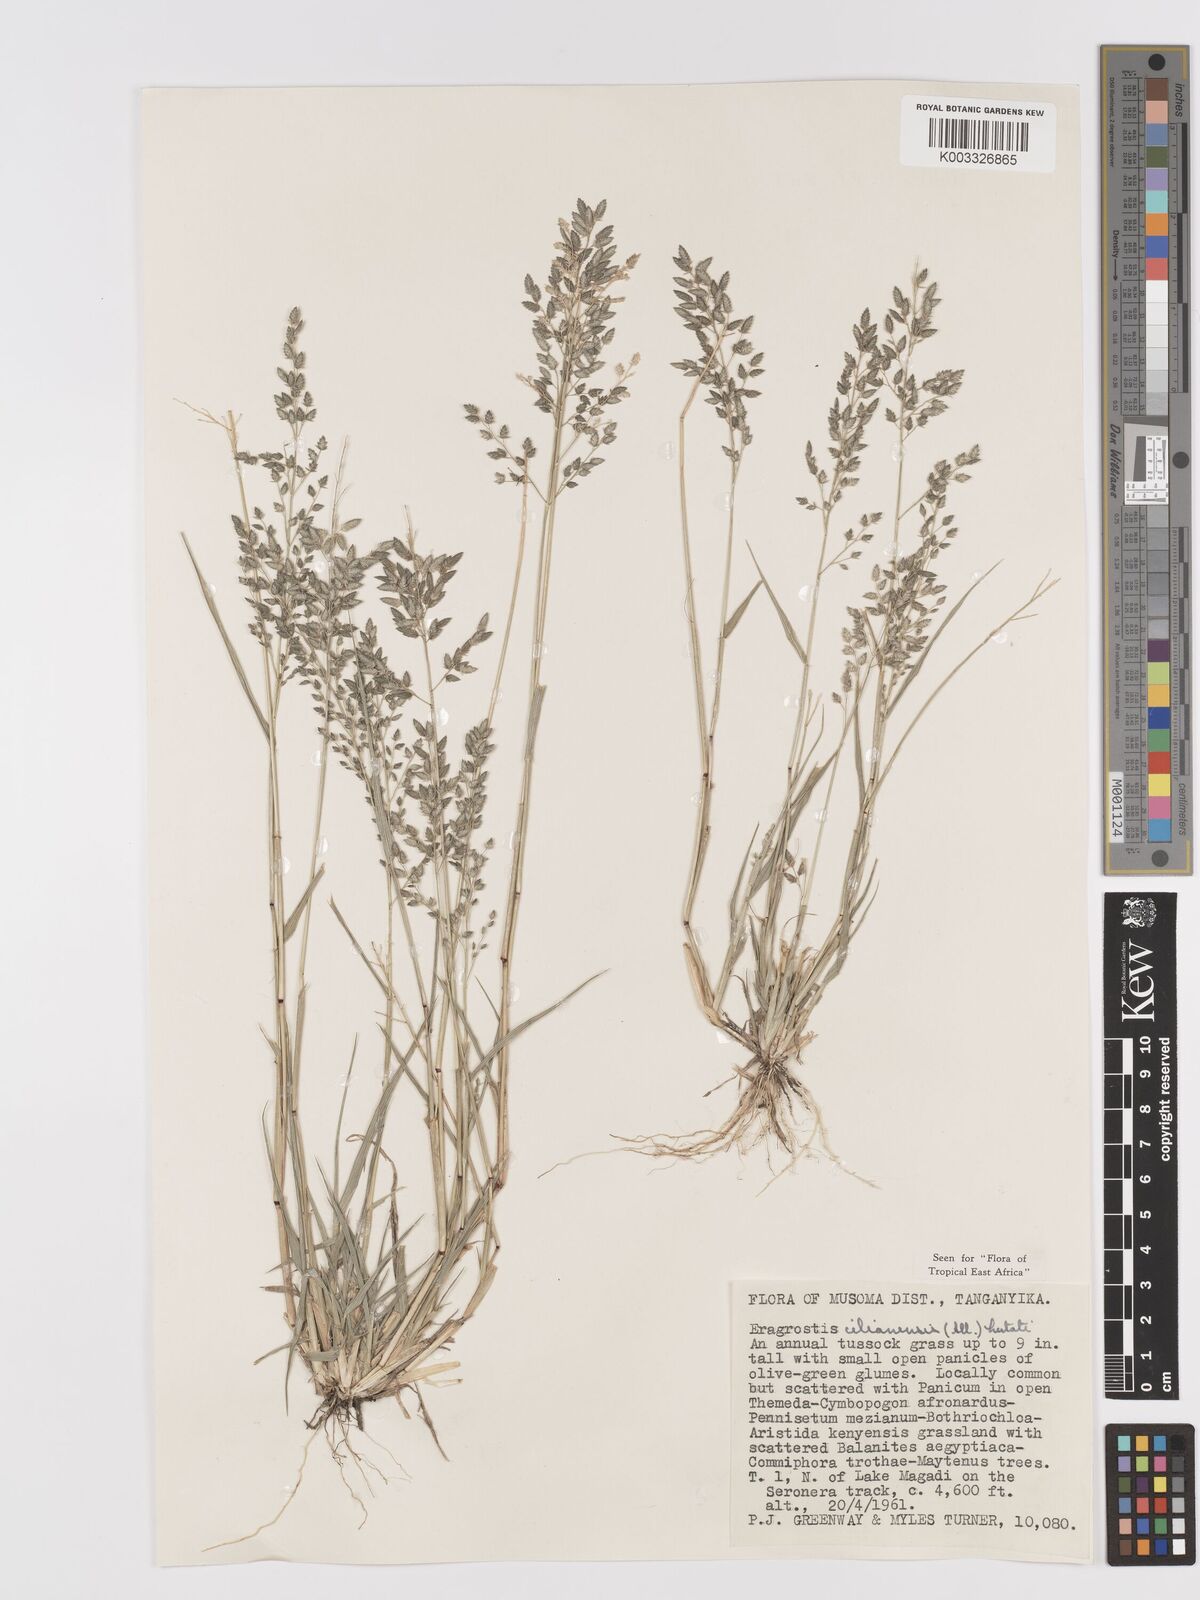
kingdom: Plantae
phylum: Tracheophyta
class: Liliopsida
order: Poales
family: Poaceae
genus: Eragrostis
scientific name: Eragrostis cilianensis
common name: Stinkgrass
